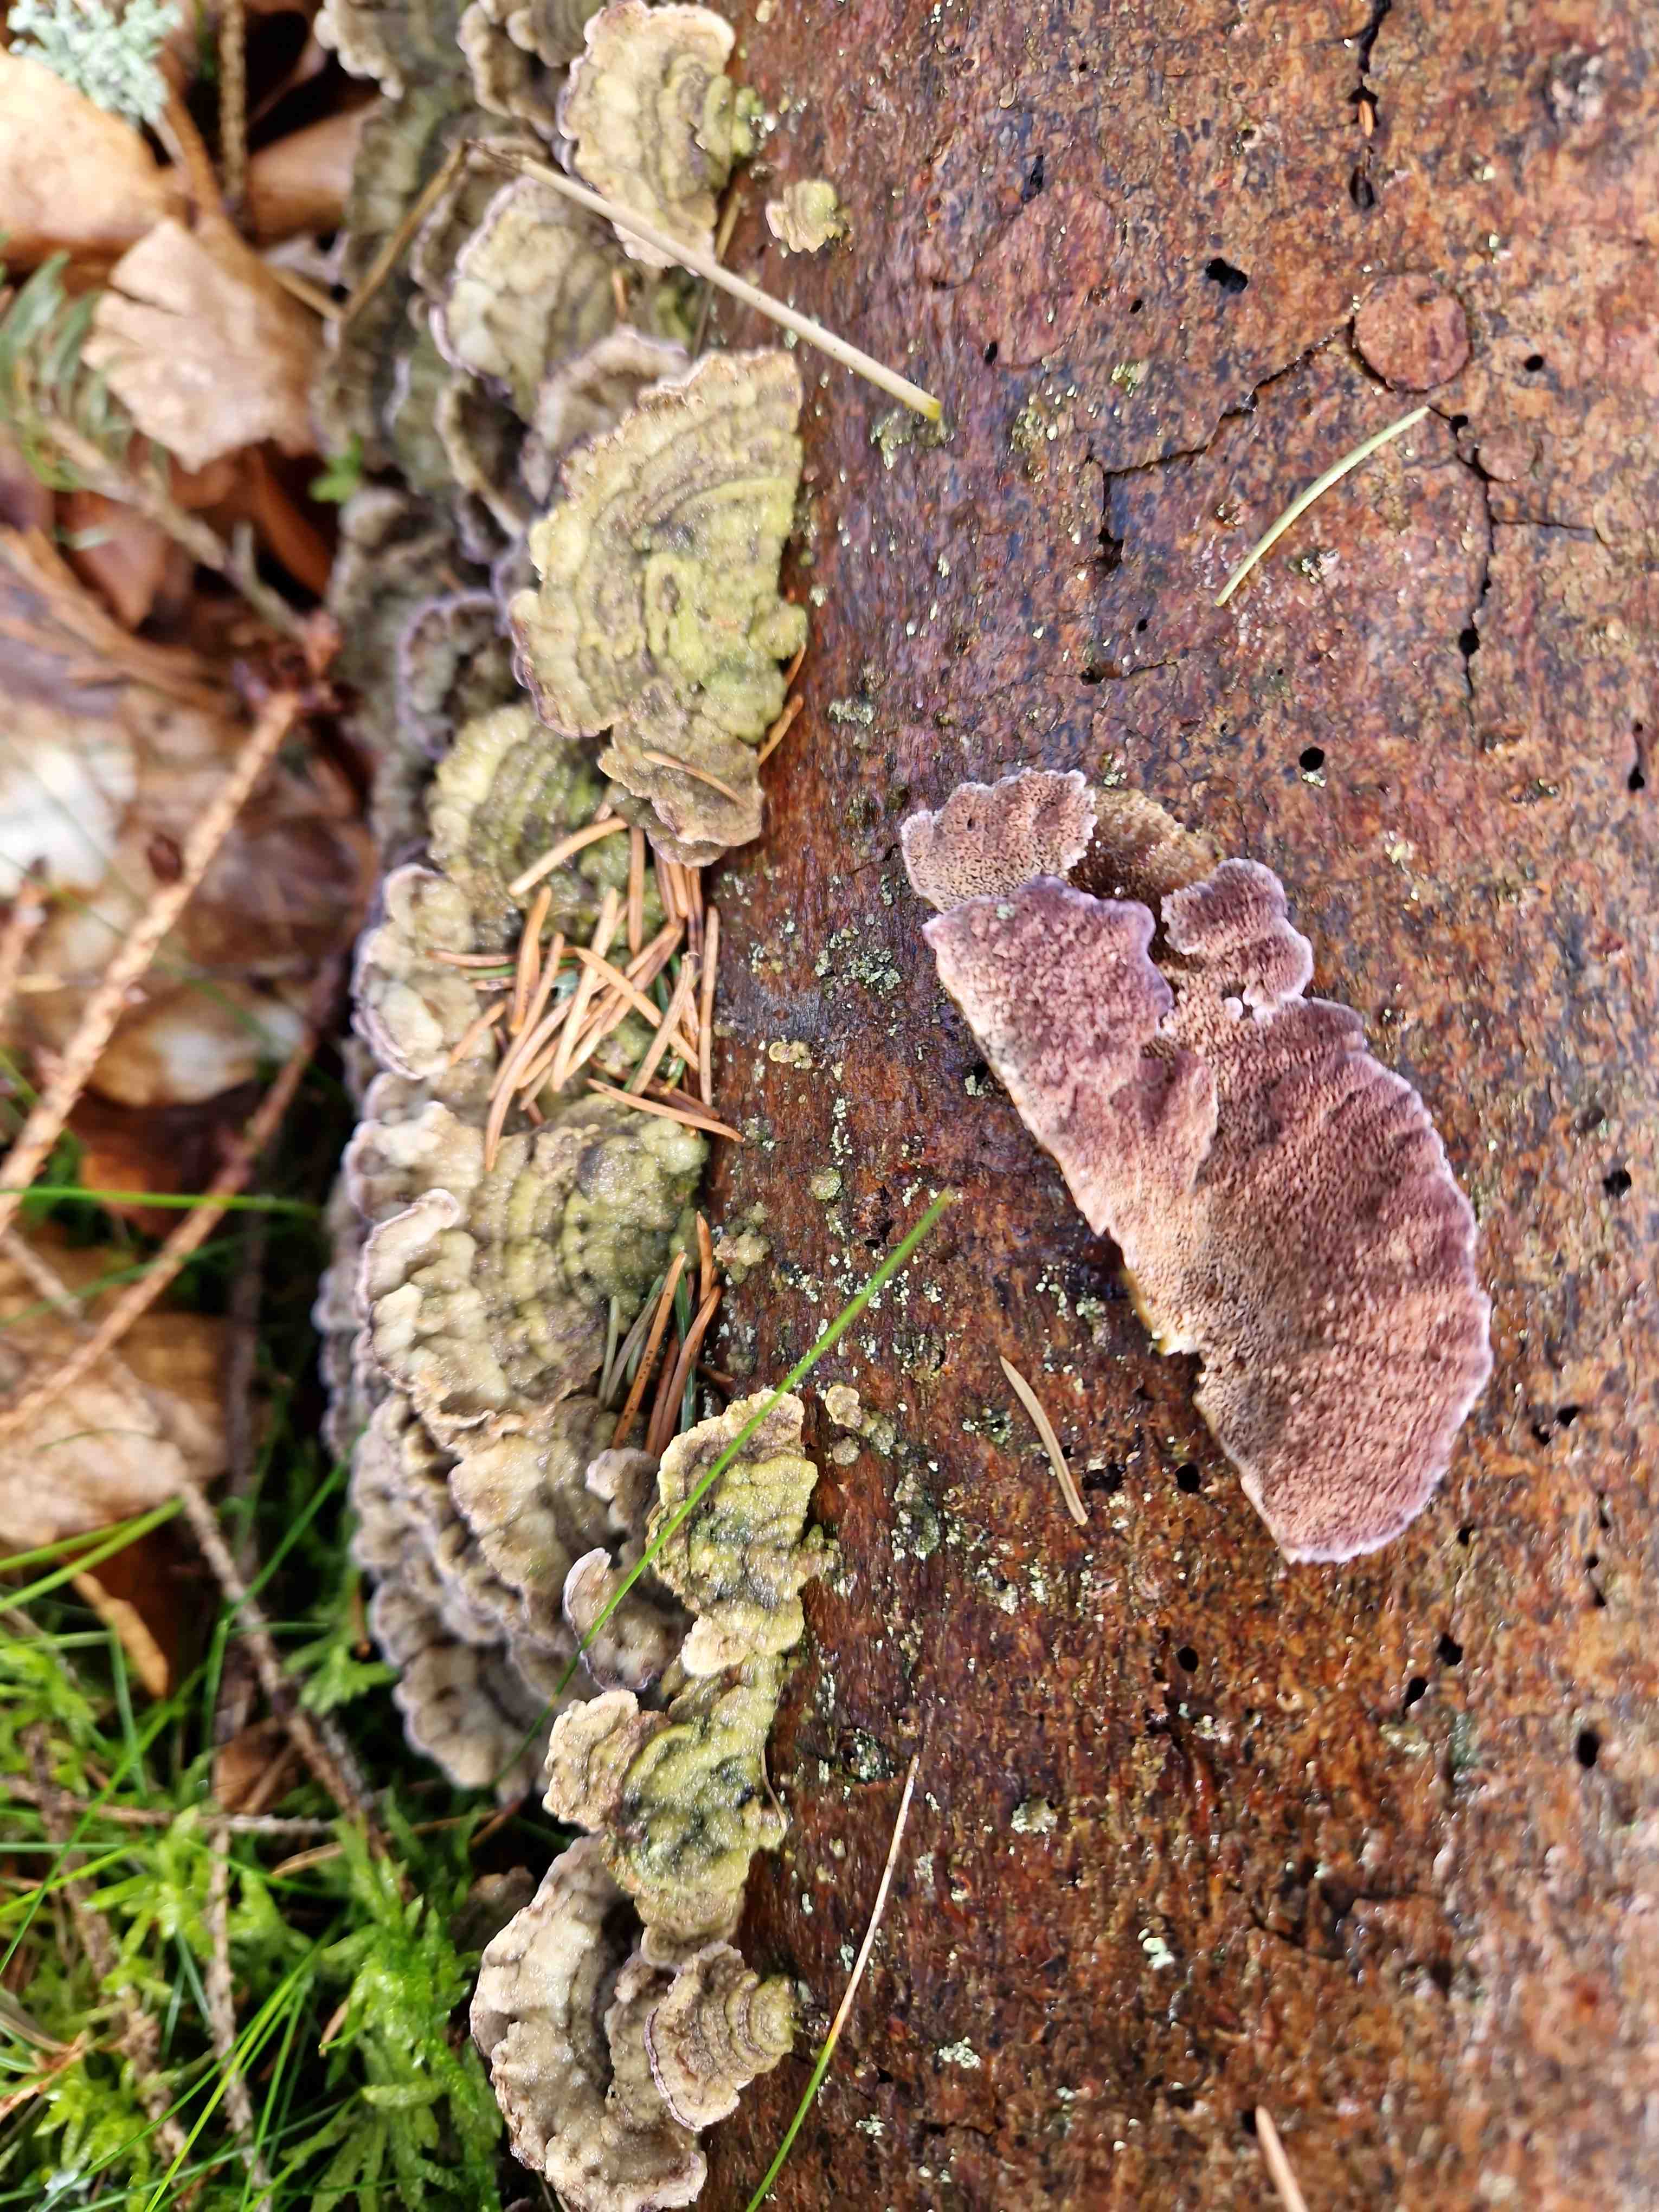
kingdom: Fungi
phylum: Basidiomycota
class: Agaricomycetes
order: Hymenochaetales
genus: Trichaptum
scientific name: Trichaptum abietinum
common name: almindelig violporesvamp
